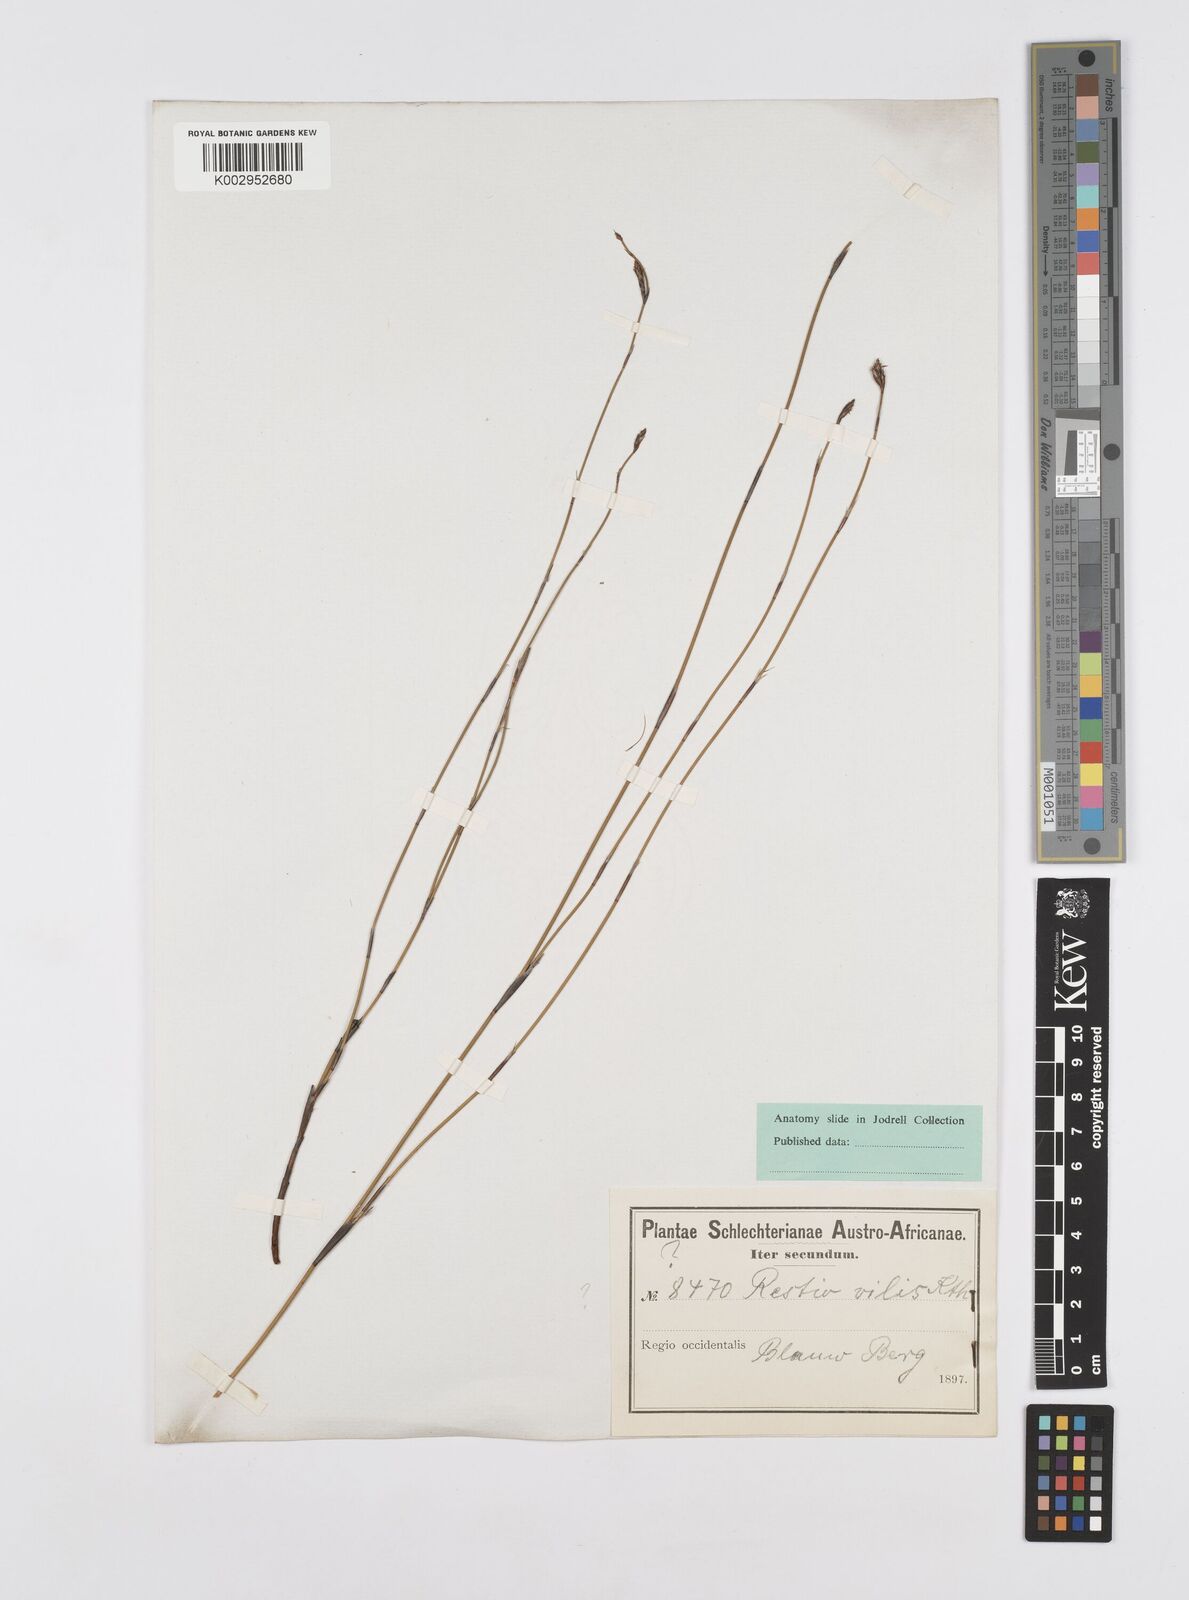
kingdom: Plantae
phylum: Tracheophyta
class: Liliopsida
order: Poales
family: Restionaceae
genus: Restio
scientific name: Restio longiaristatus
